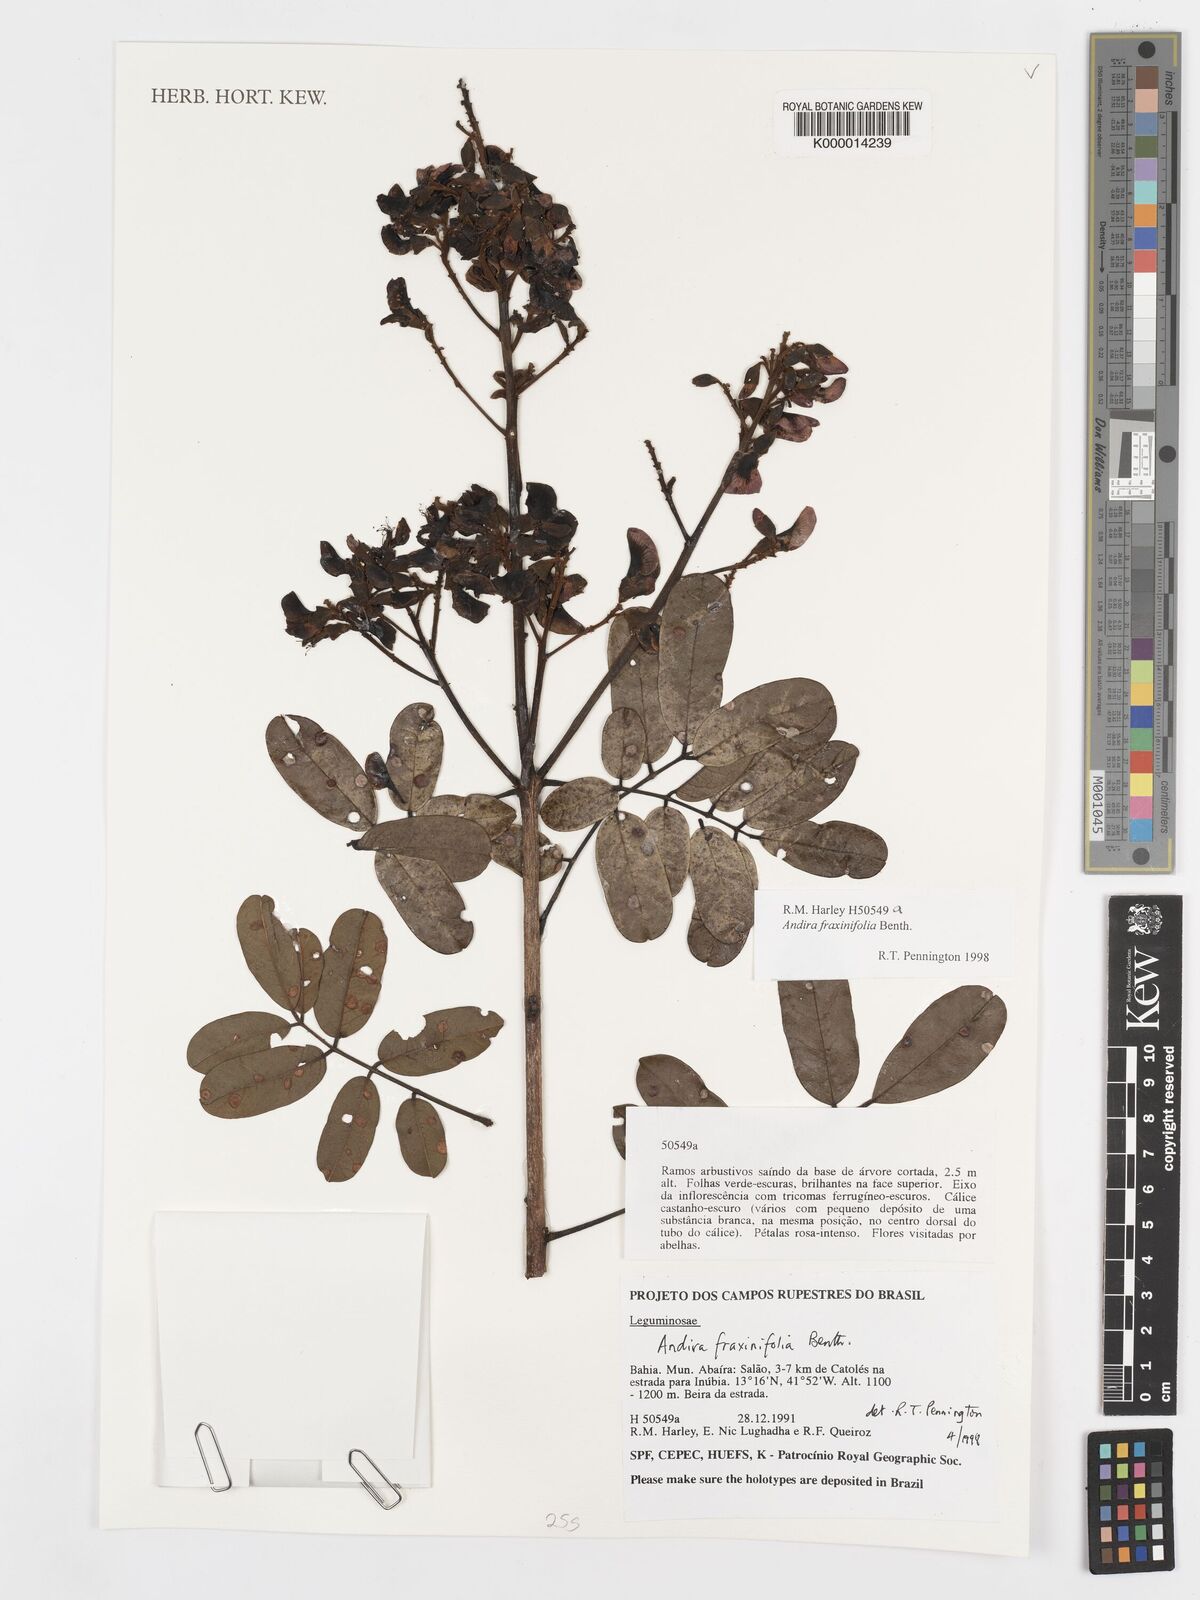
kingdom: Plantae
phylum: Tracheophyta
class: Magnoliopsida
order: Fabales
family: Fabaceae
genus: Andira
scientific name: Andira fraxinifolia
